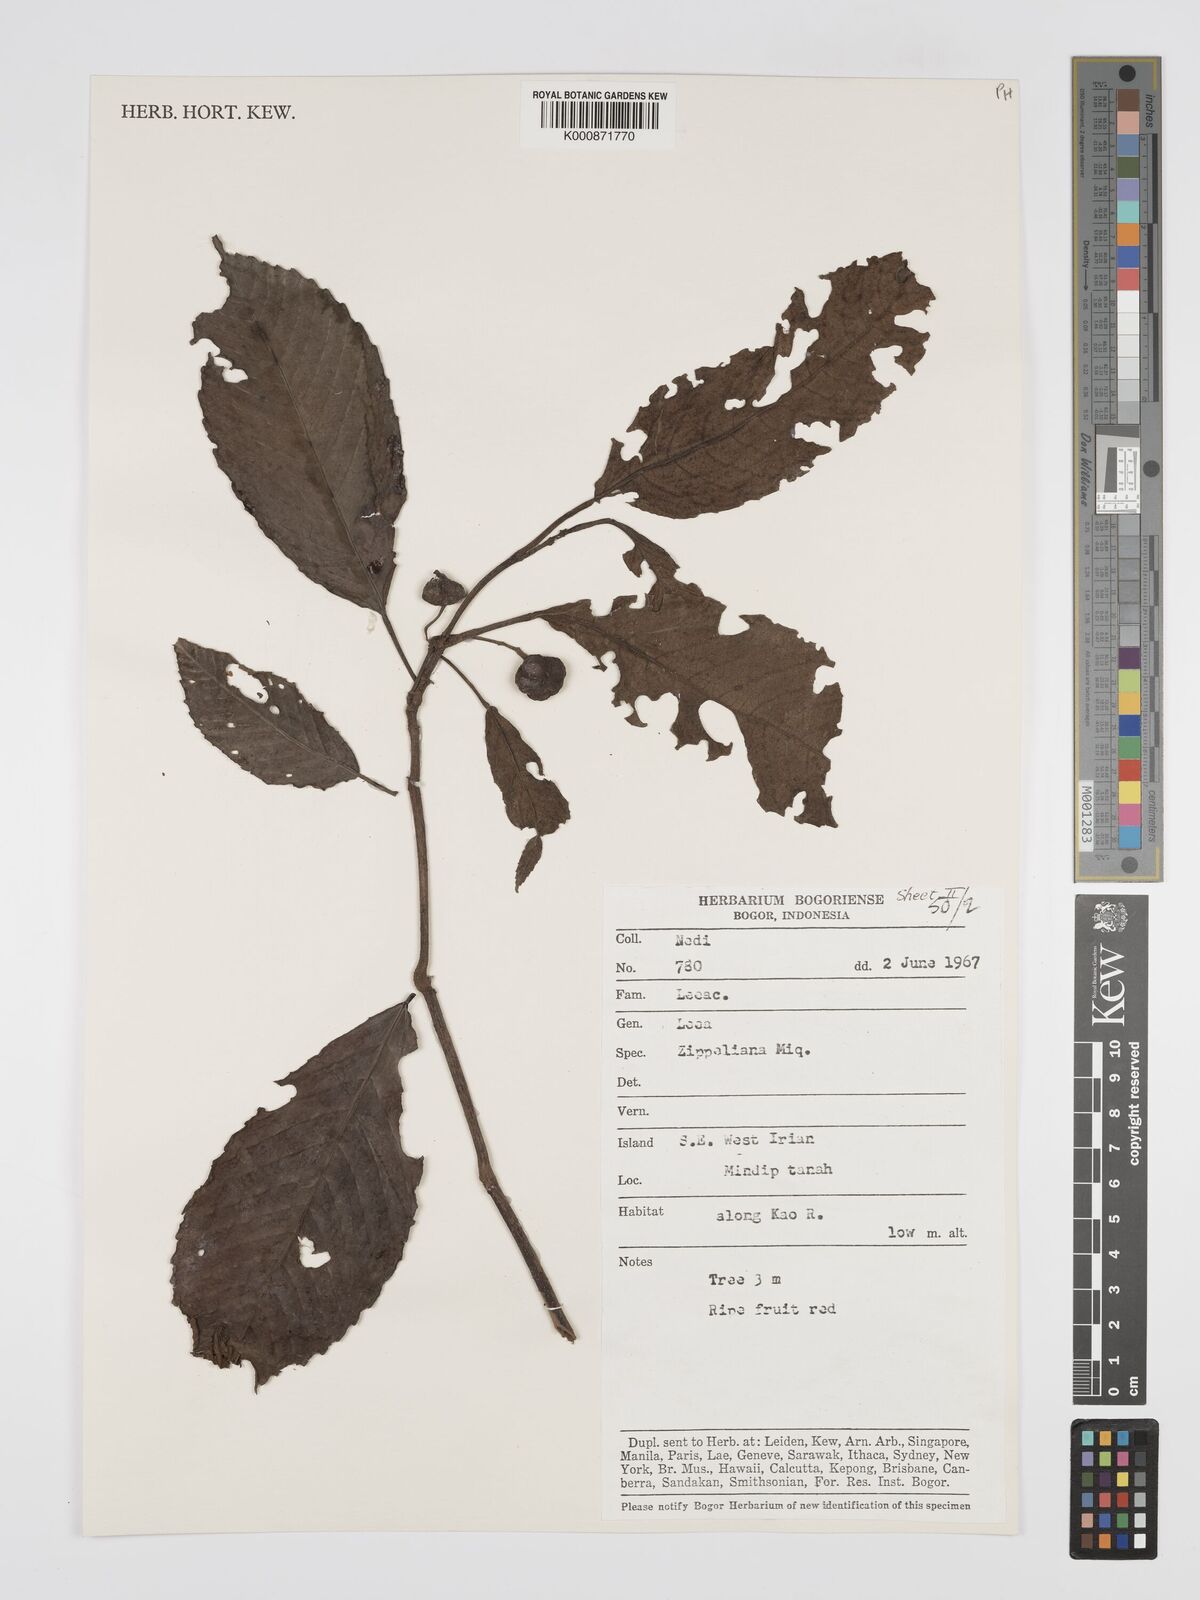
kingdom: Plantae
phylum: Tracheophyta
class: Magnoliopsida
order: Vitales
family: Vitaceae
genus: Leea
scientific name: Leea zippeliana
